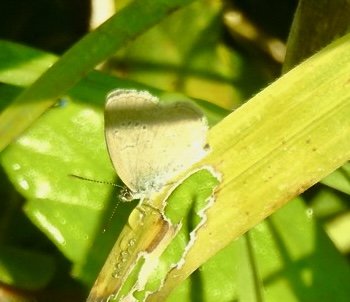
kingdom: Animalia
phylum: Arthropoda
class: Insecta
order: Lepidoptera
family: Lycaenidae
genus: Zizina
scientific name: Zizina otis
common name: Lesser Grass Blue
